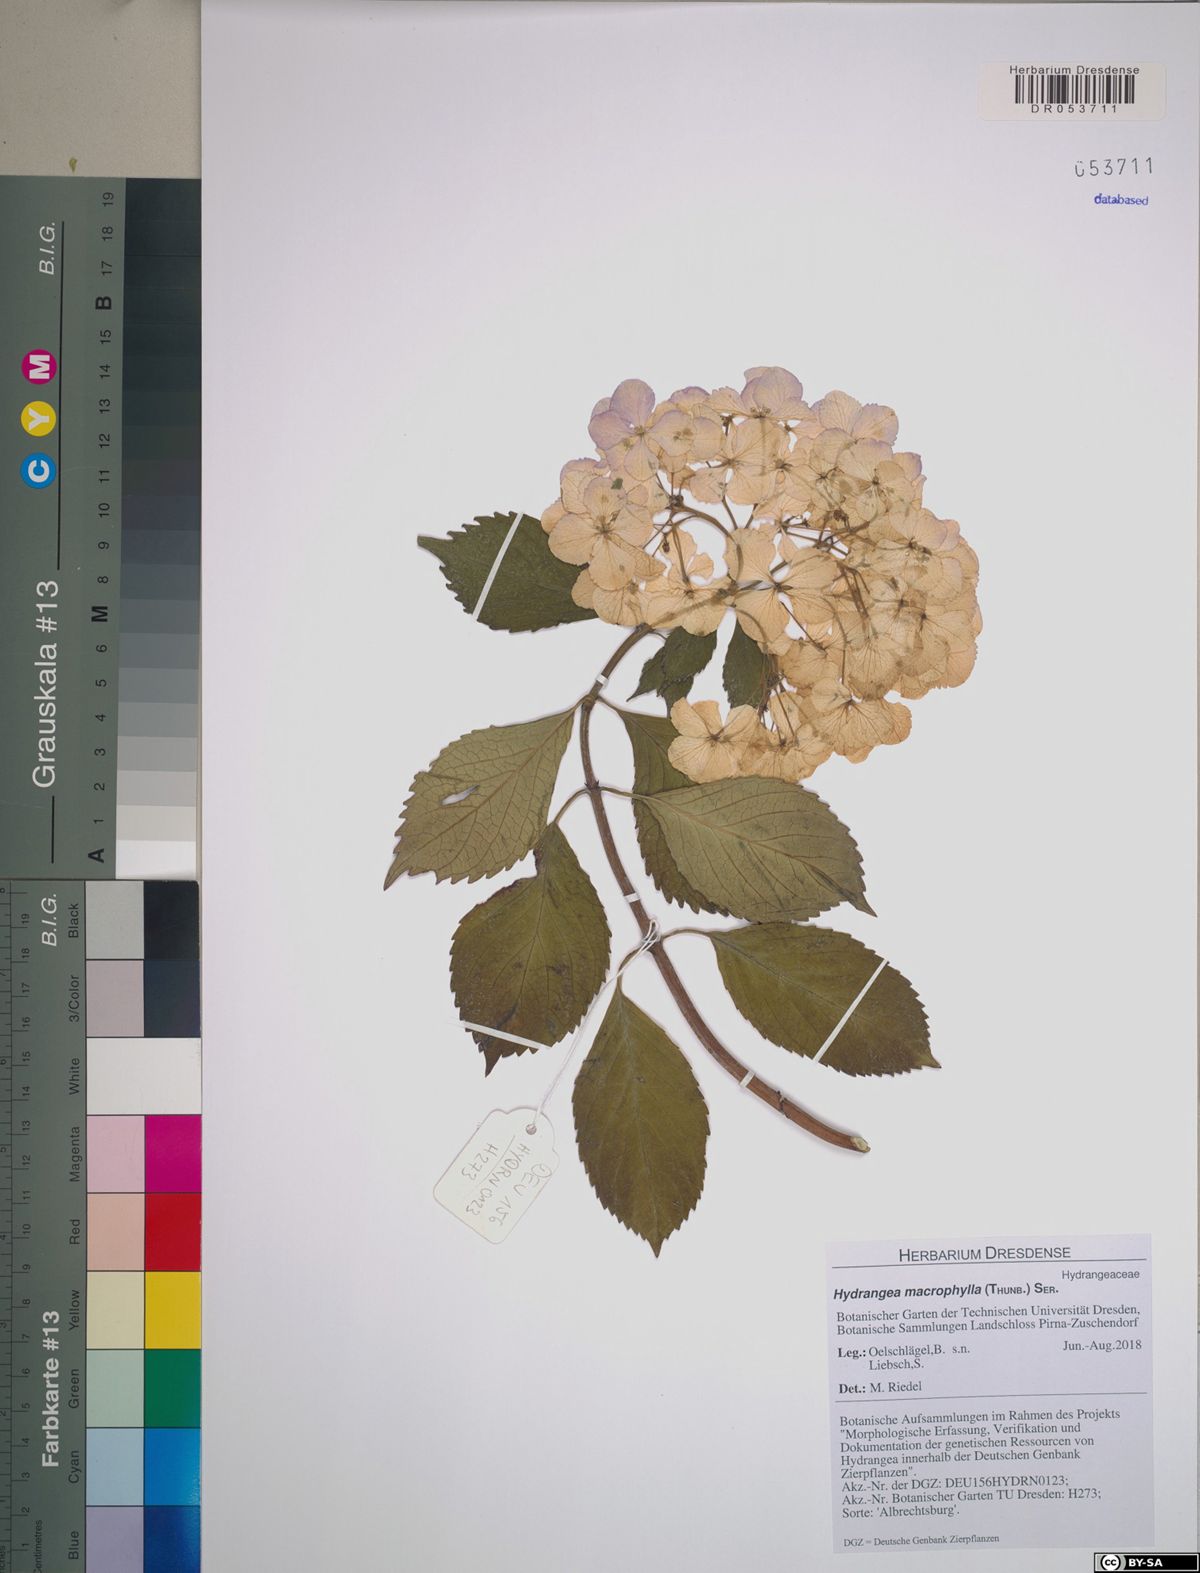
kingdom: Plantae
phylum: Tracheophyta
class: Magnoliopsida
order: Cornales
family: Hydrangeaceae
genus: Hydrangea
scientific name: Hydrangea macrophylla
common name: Hydrangea
